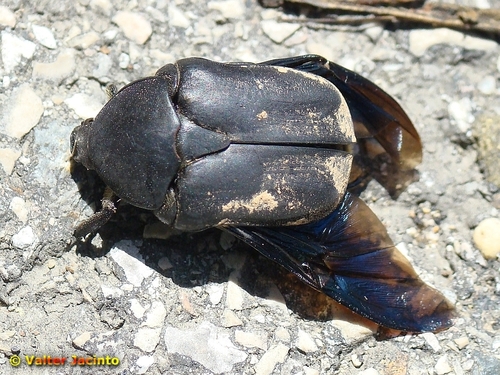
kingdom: Animalia
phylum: Arthropoda
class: Insecta
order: Coleoptera
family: Scarabaeidae
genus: Protaetia
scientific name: Protaetia opaca
